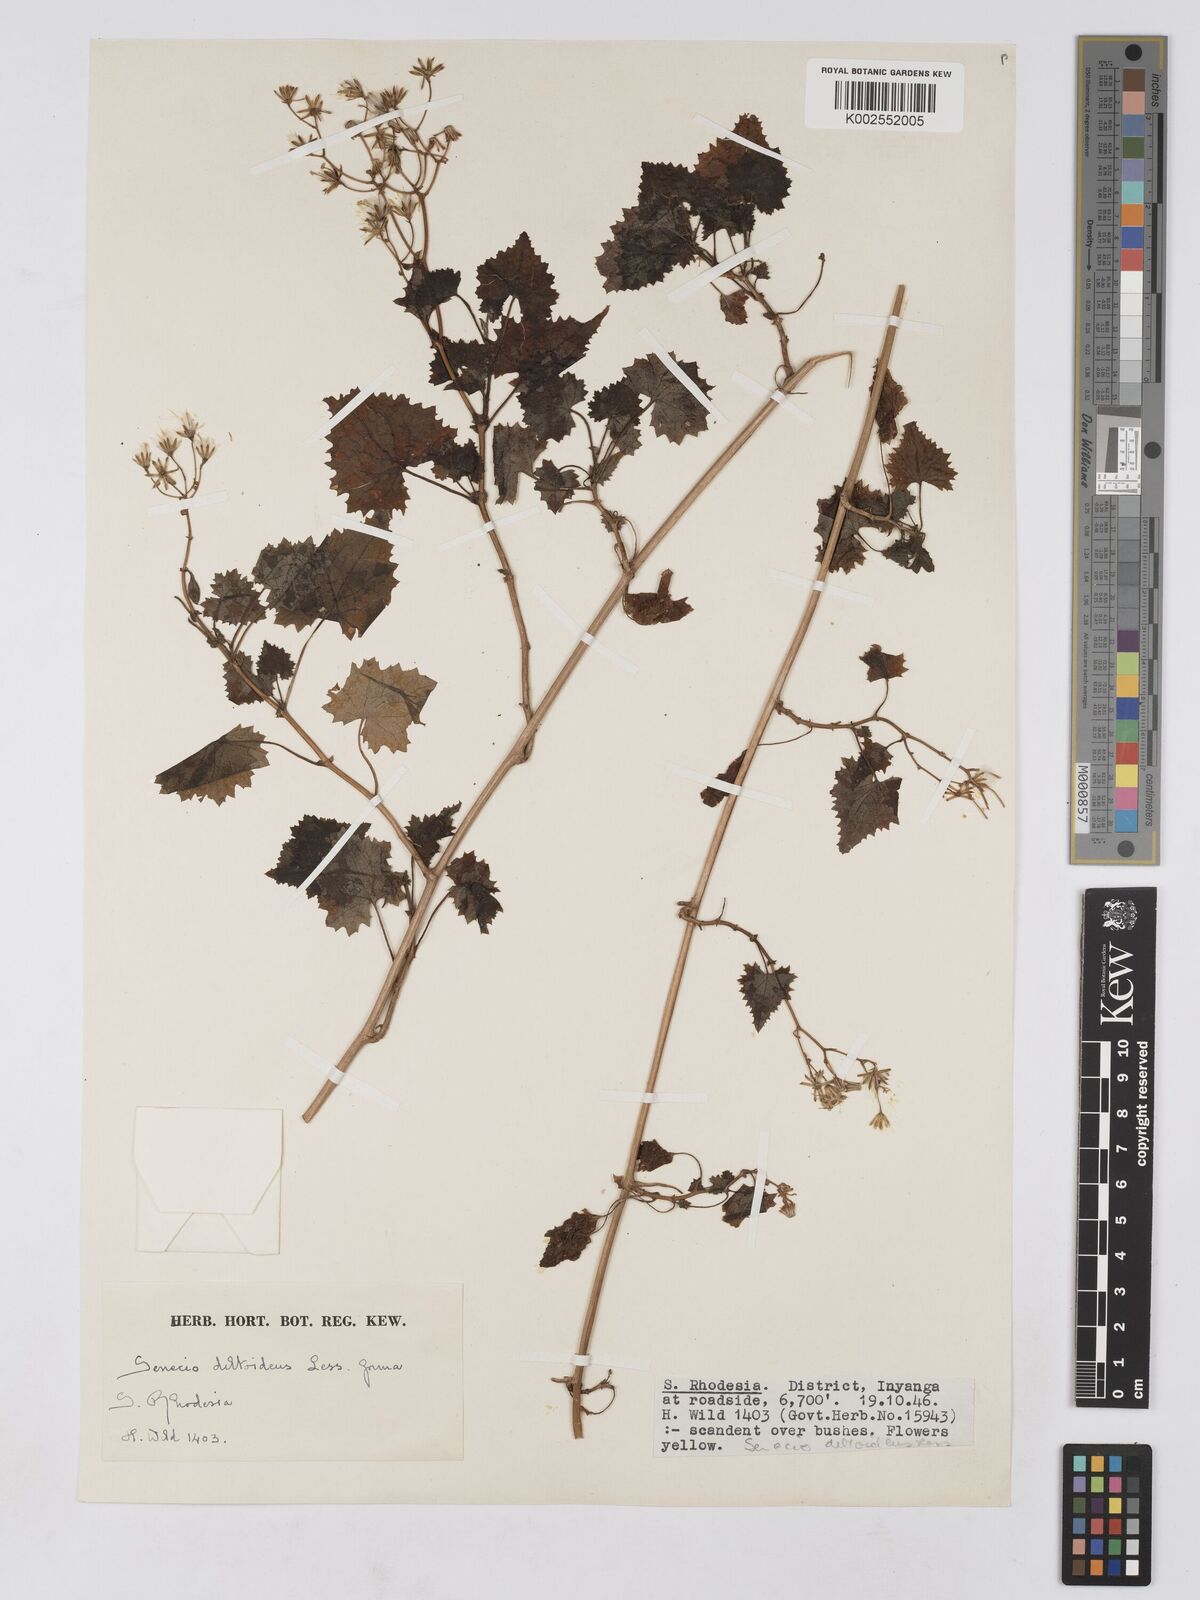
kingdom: Plantae
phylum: Tracheophyta
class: Magnoliopsida
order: Asterales
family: Asteraceae
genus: Cineraria
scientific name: Cineraria deltoidea
